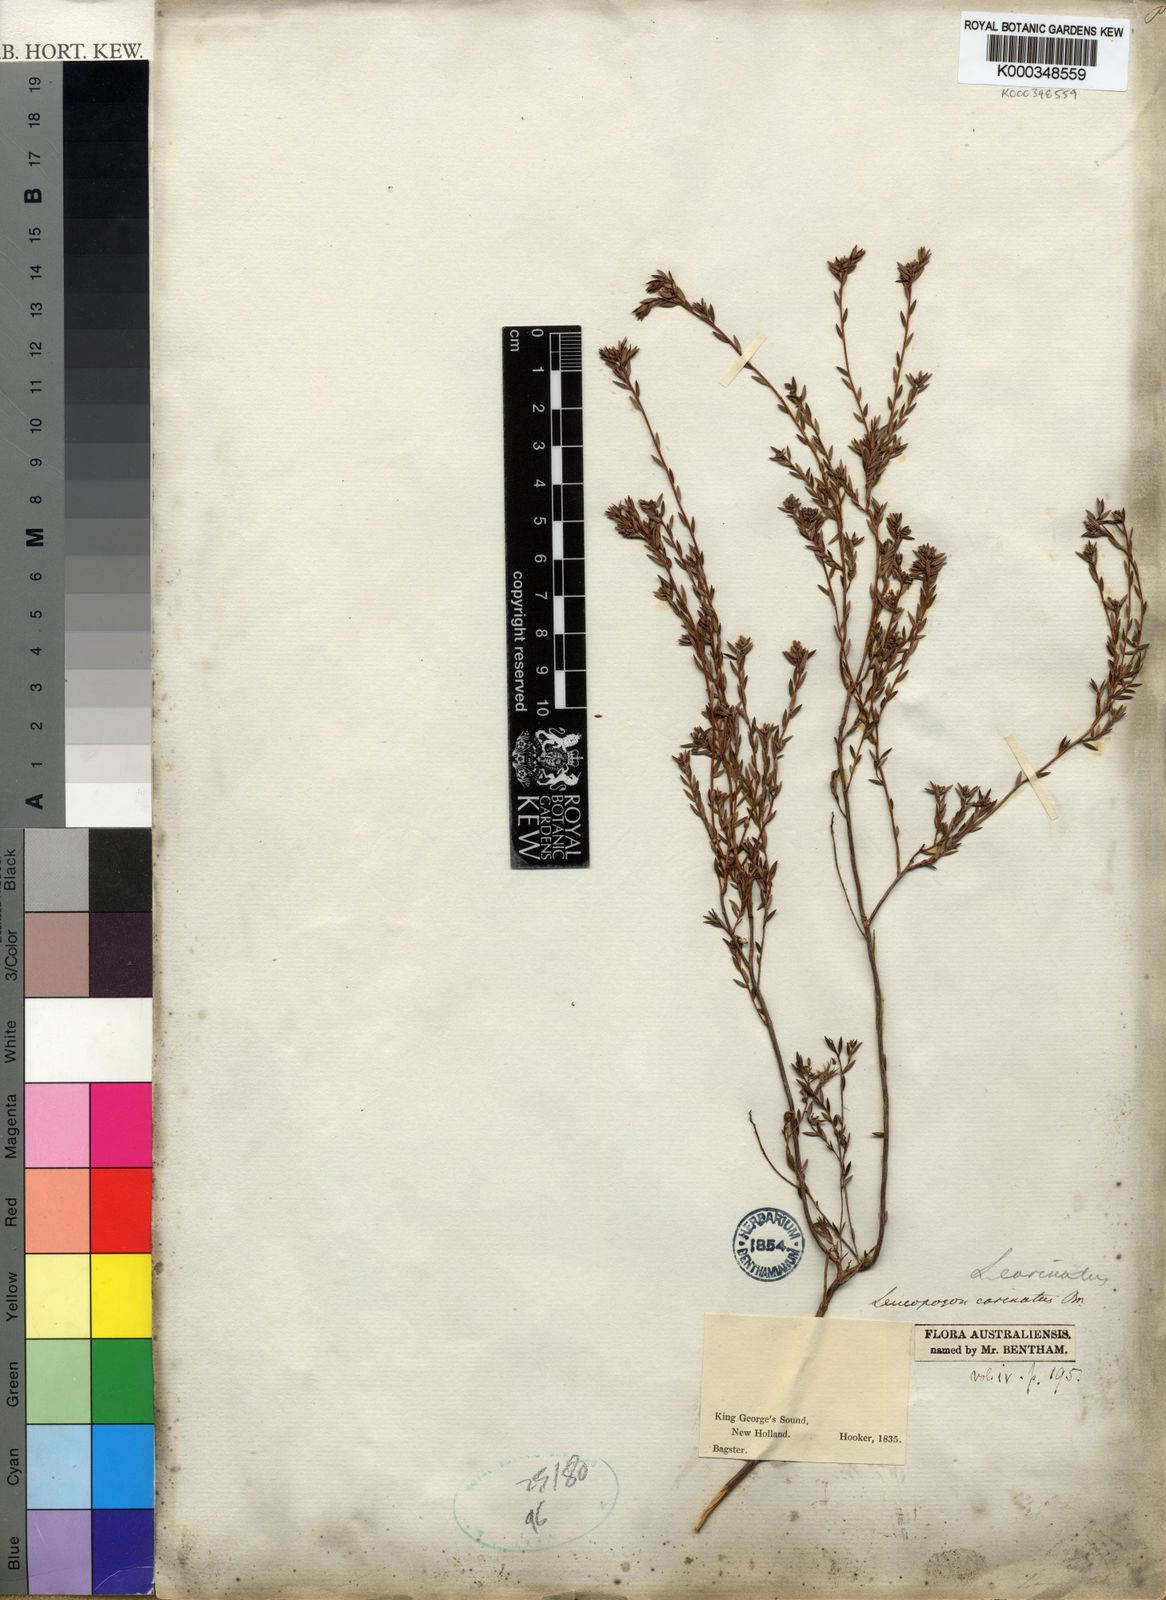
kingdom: Plantae
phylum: Tracheophyta
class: Magnoliopsida
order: Ericales
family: Ericaceae
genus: Leucopogon
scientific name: Leucopogon carinatus
